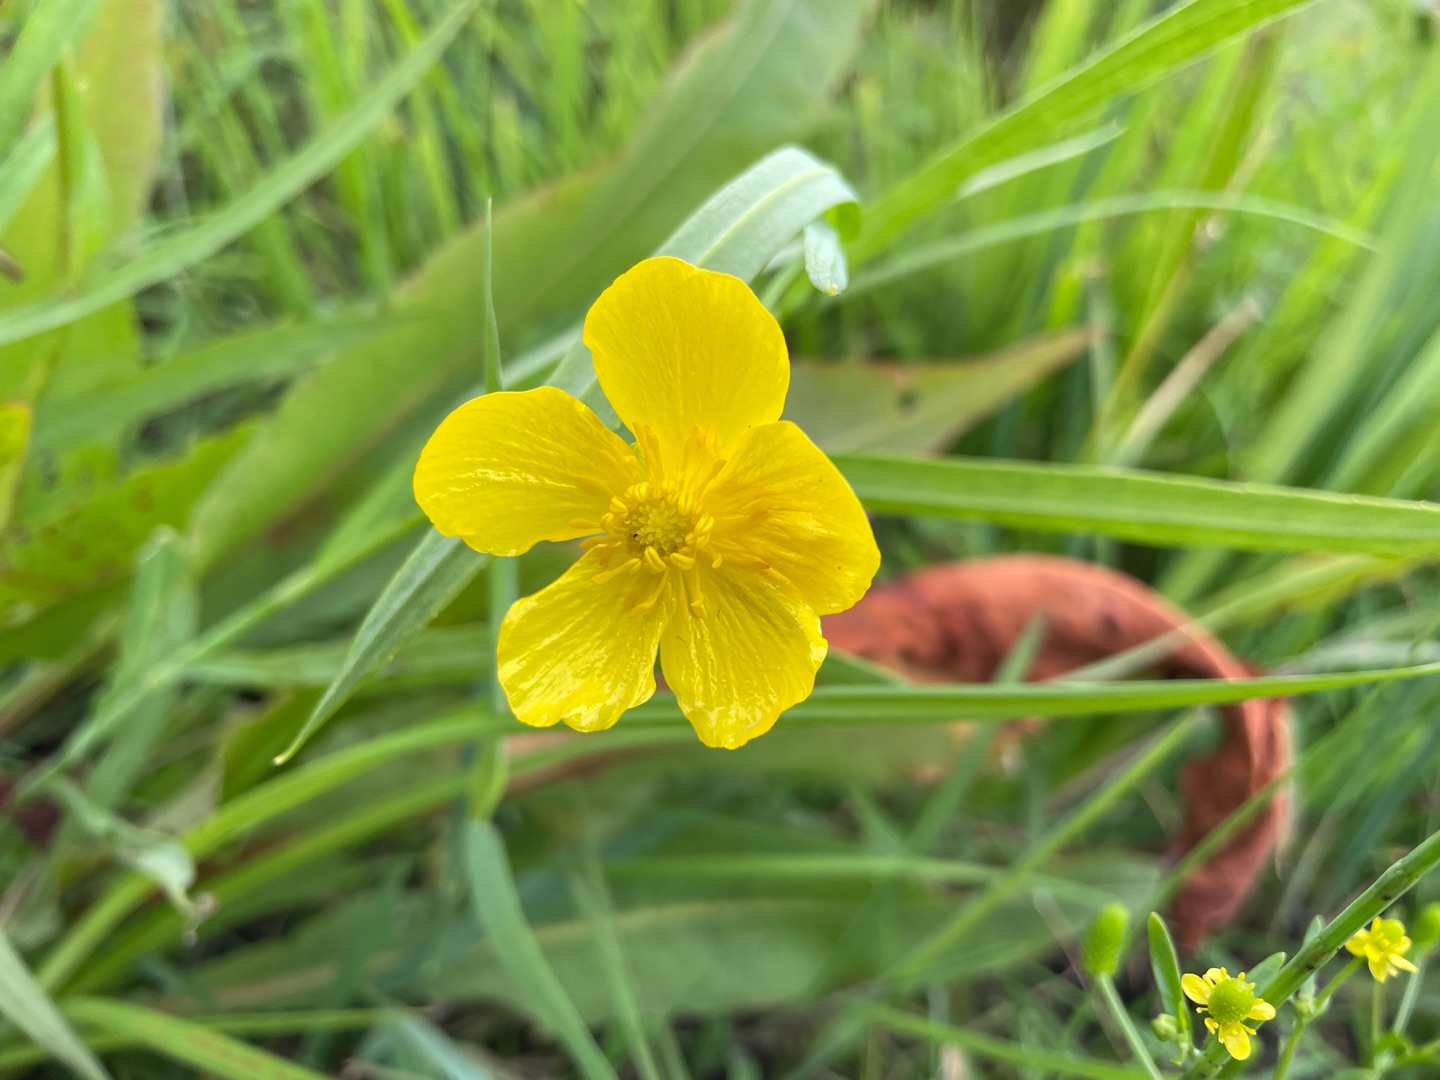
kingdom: Plantae
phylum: Tracheophyta
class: Magnoliopsida
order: Ranunculales
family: Ranunculaceae
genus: Ranunculus
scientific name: Ranunculus lingua
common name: Langbladet ranunkel
